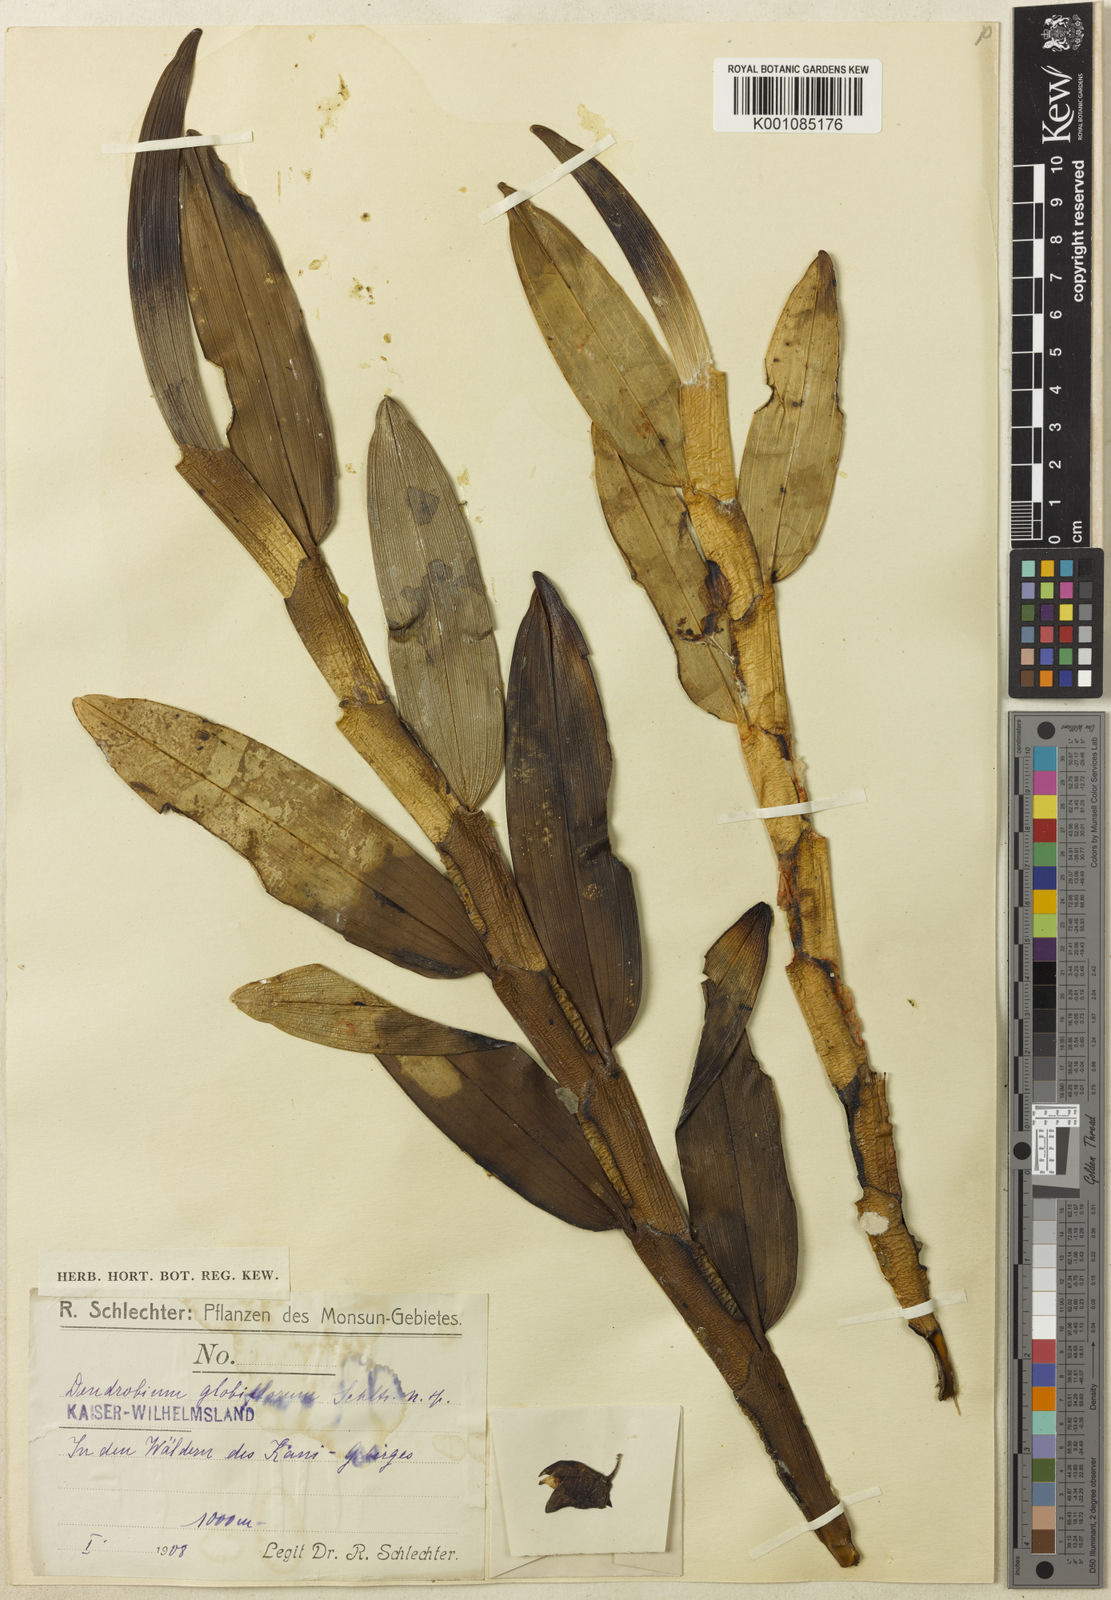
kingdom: Plantae
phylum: Tracheophyta
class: Liliopsida
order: Asparagales
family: Orchidaceae
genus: Dendrobium
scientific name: Dendrobium globiflorum
